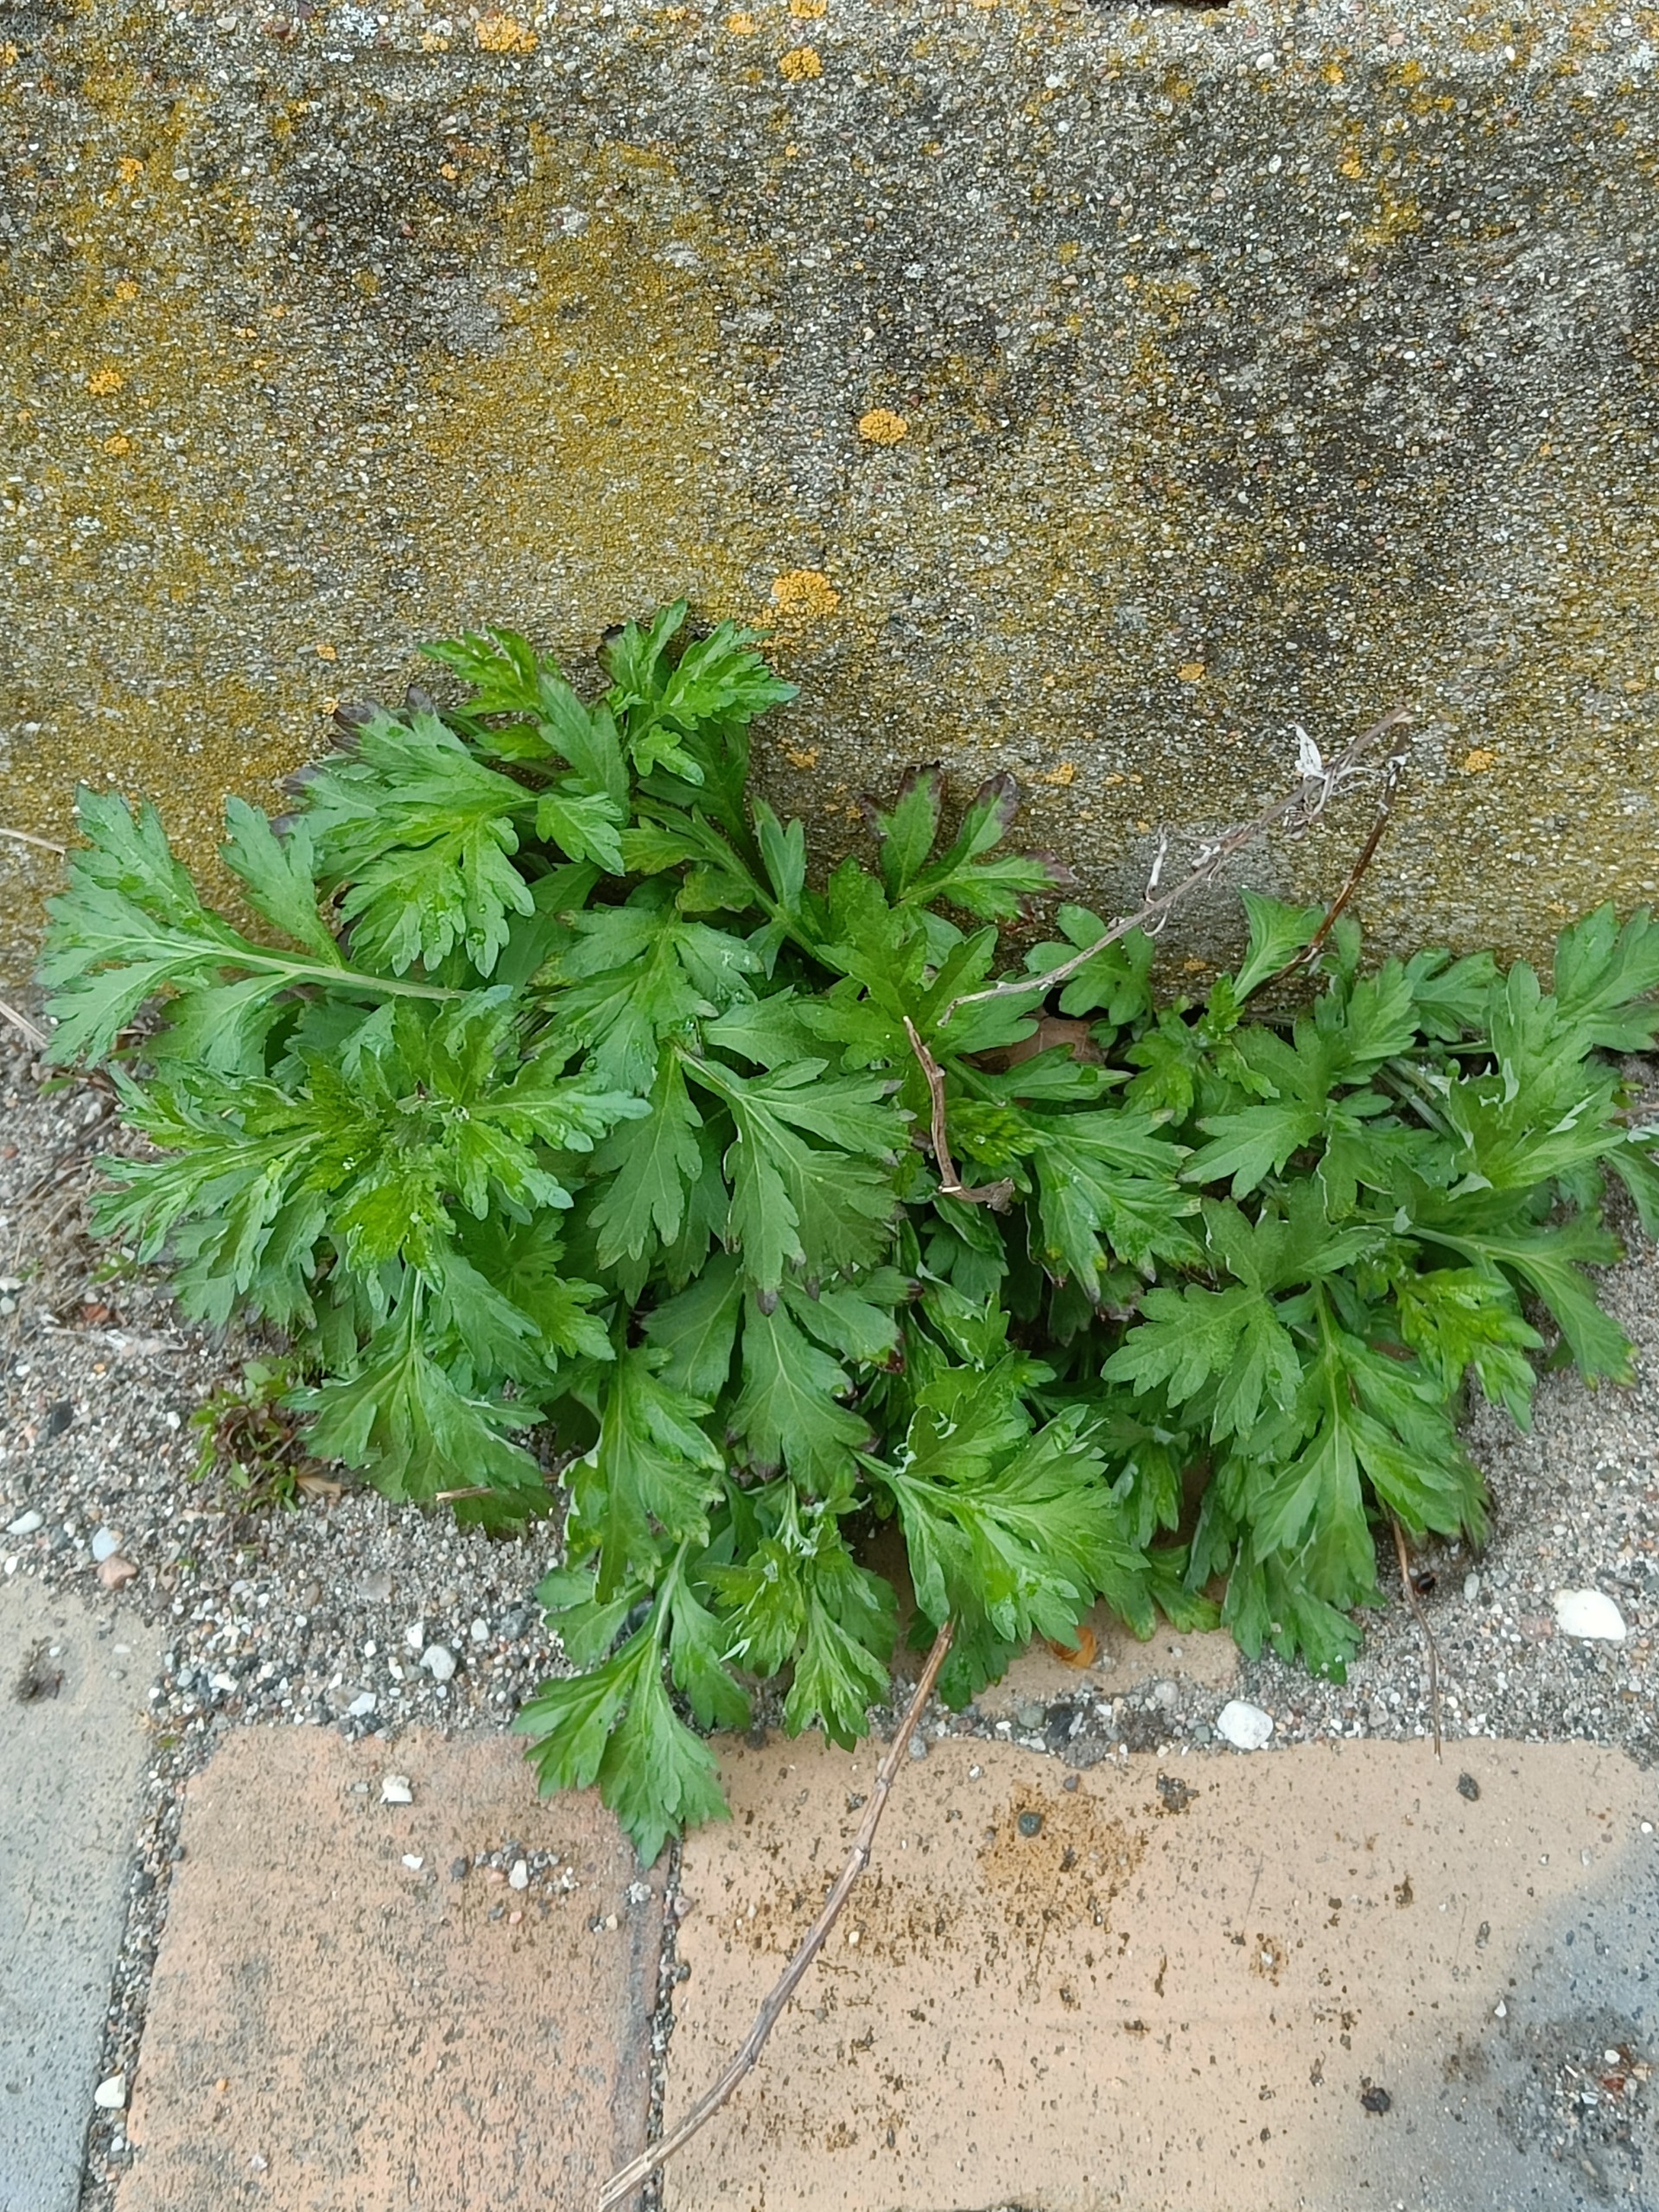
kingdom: Plantae
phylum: Tracheophyta
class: Magnoliopsida
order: Asterales
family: Asteraceae
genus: Artemisia
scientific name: Artemisia vulgaris
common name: Grå-bynke
